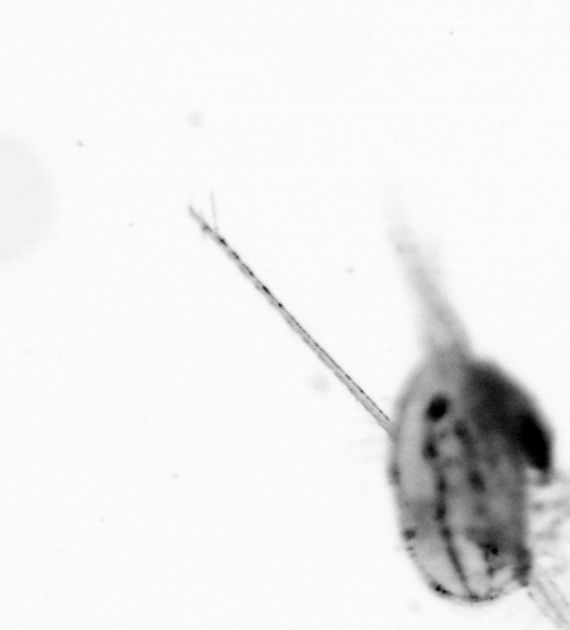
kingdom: Animalia
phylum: Arthropoda
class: Copepoda
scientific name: Copepoda
